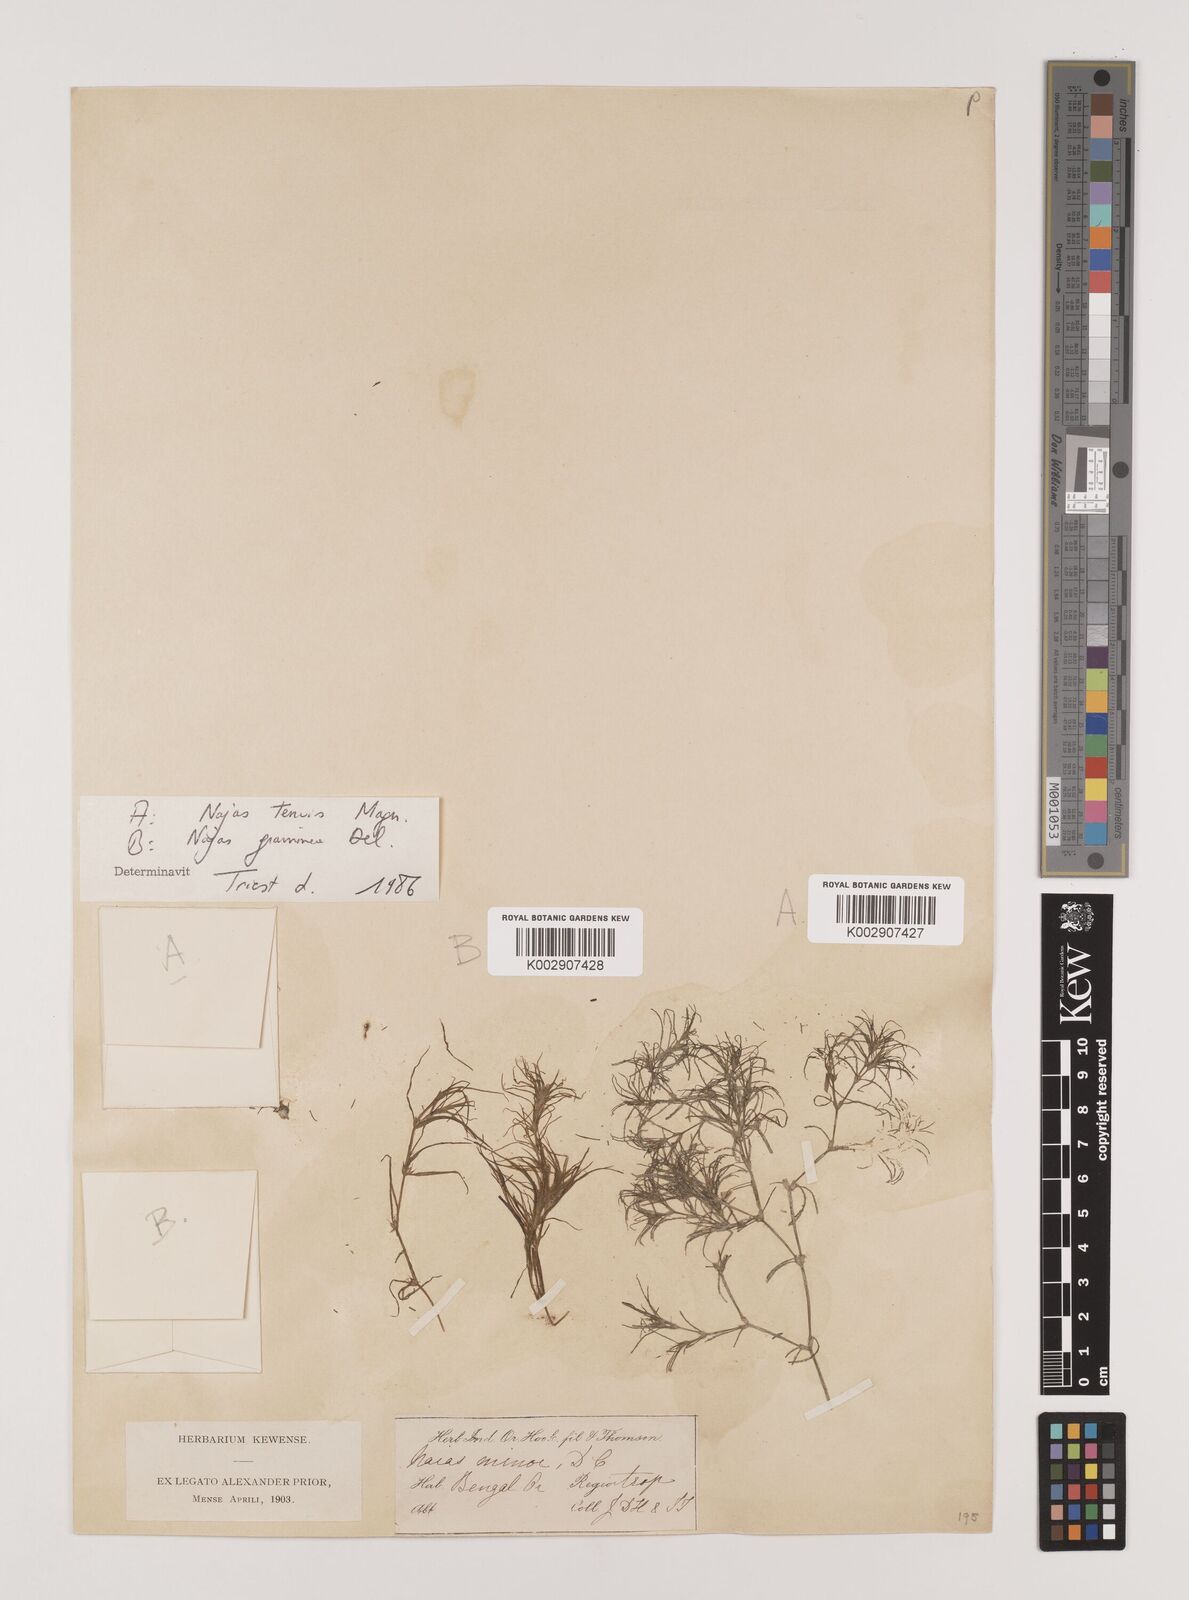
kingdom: Plantae
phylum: Tracheophyta
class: Liliopsida
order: Alismatales
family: Hydrocharitaceae
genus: Najas
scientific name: Najas indica
